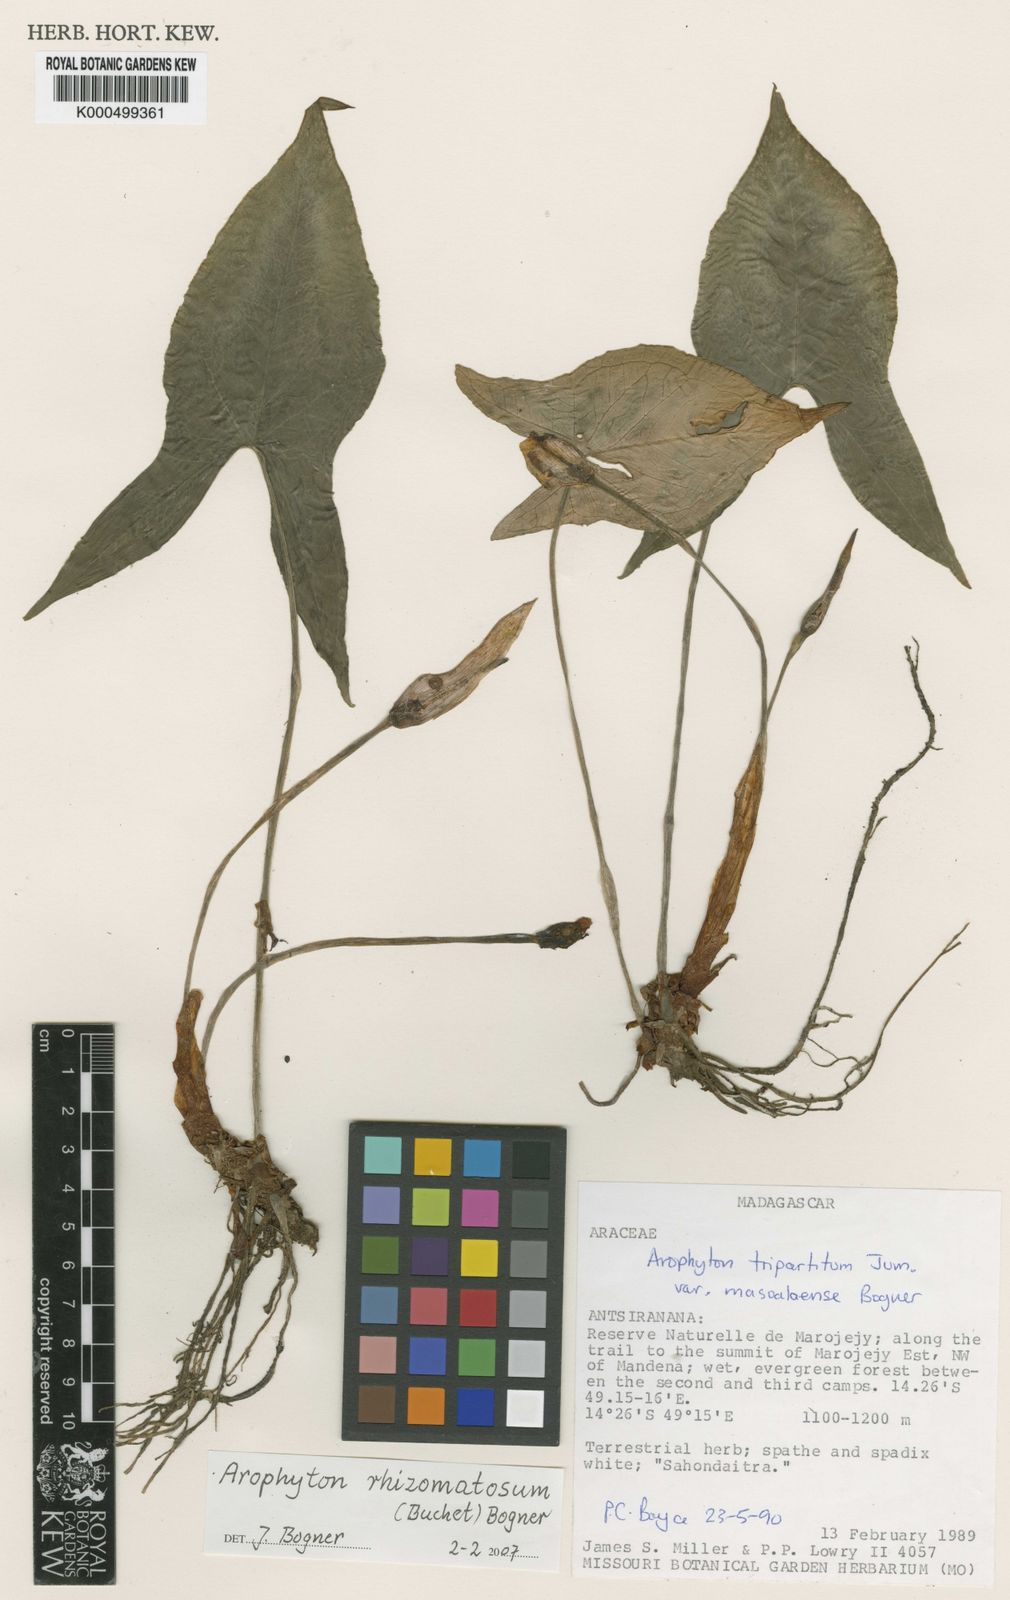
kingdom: Plantae
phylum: Tracheophyta
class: Liliopsida
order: Alismatales
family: Araceae
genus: Arophyton
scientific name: Arophyton rhizomatosum
